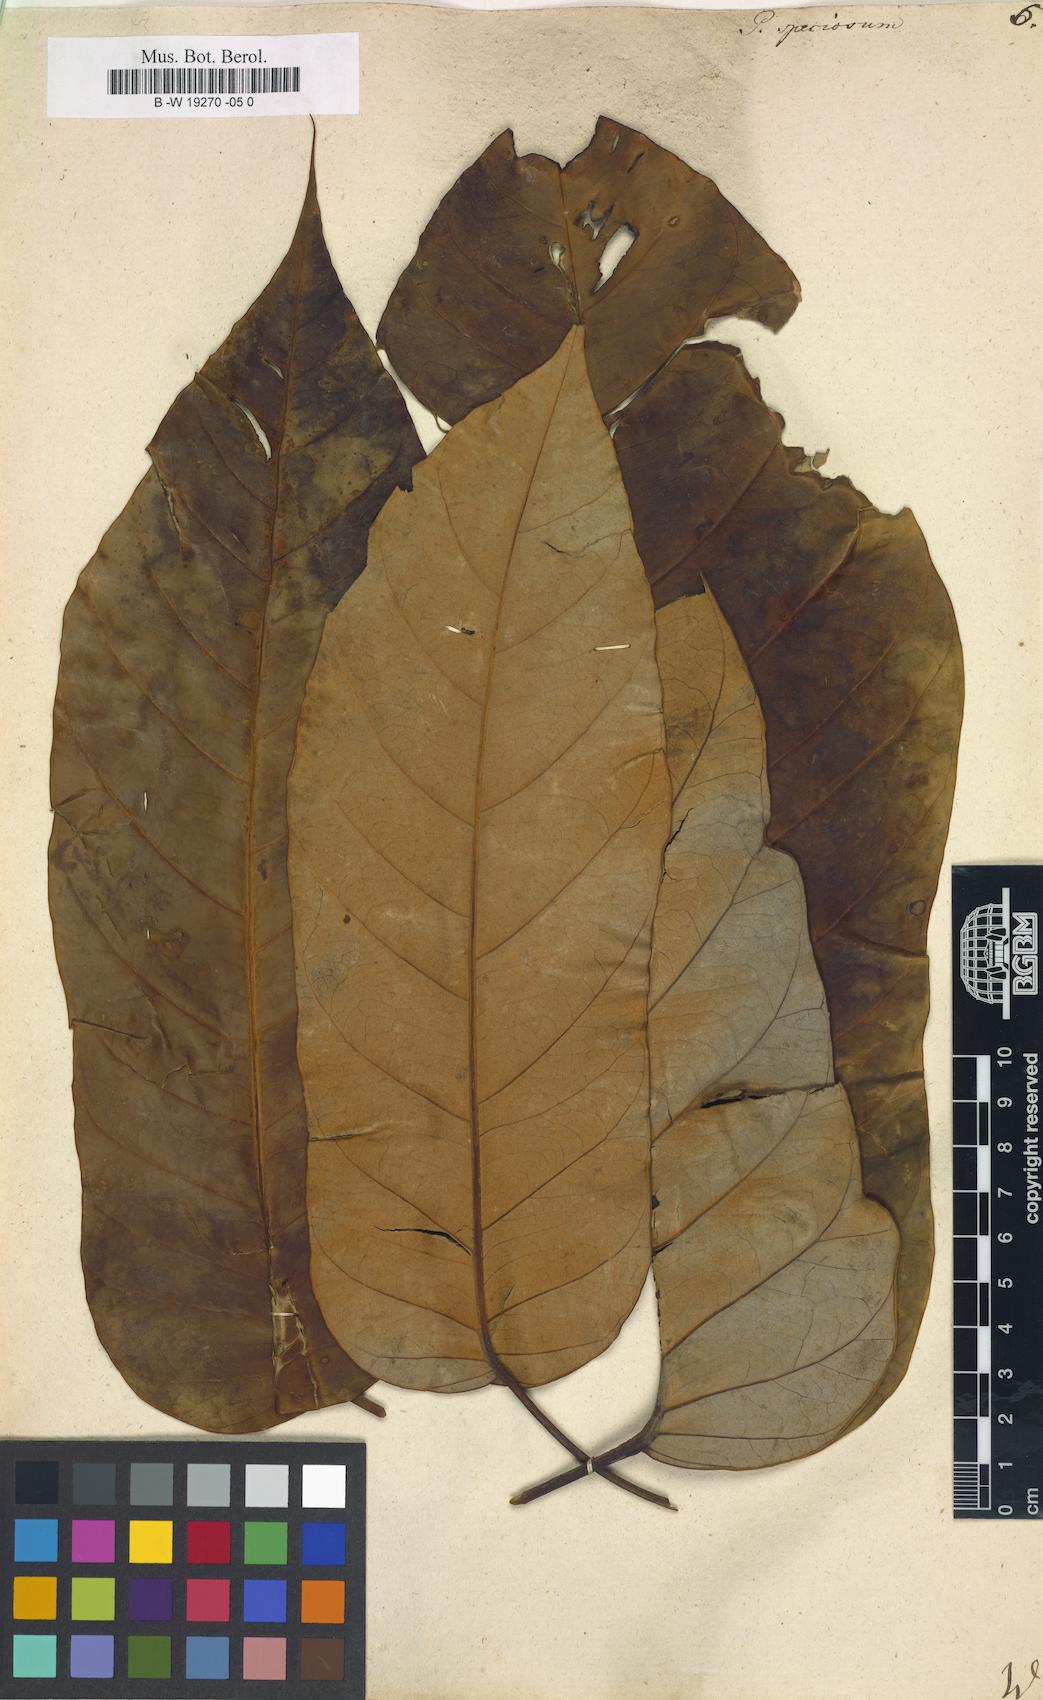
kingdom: Plantae
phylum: Tracheophyta
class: Magnoliopsida
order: Apiales
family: Araliaceae
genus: Didymopanax
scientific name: Didymopanax morototoni
